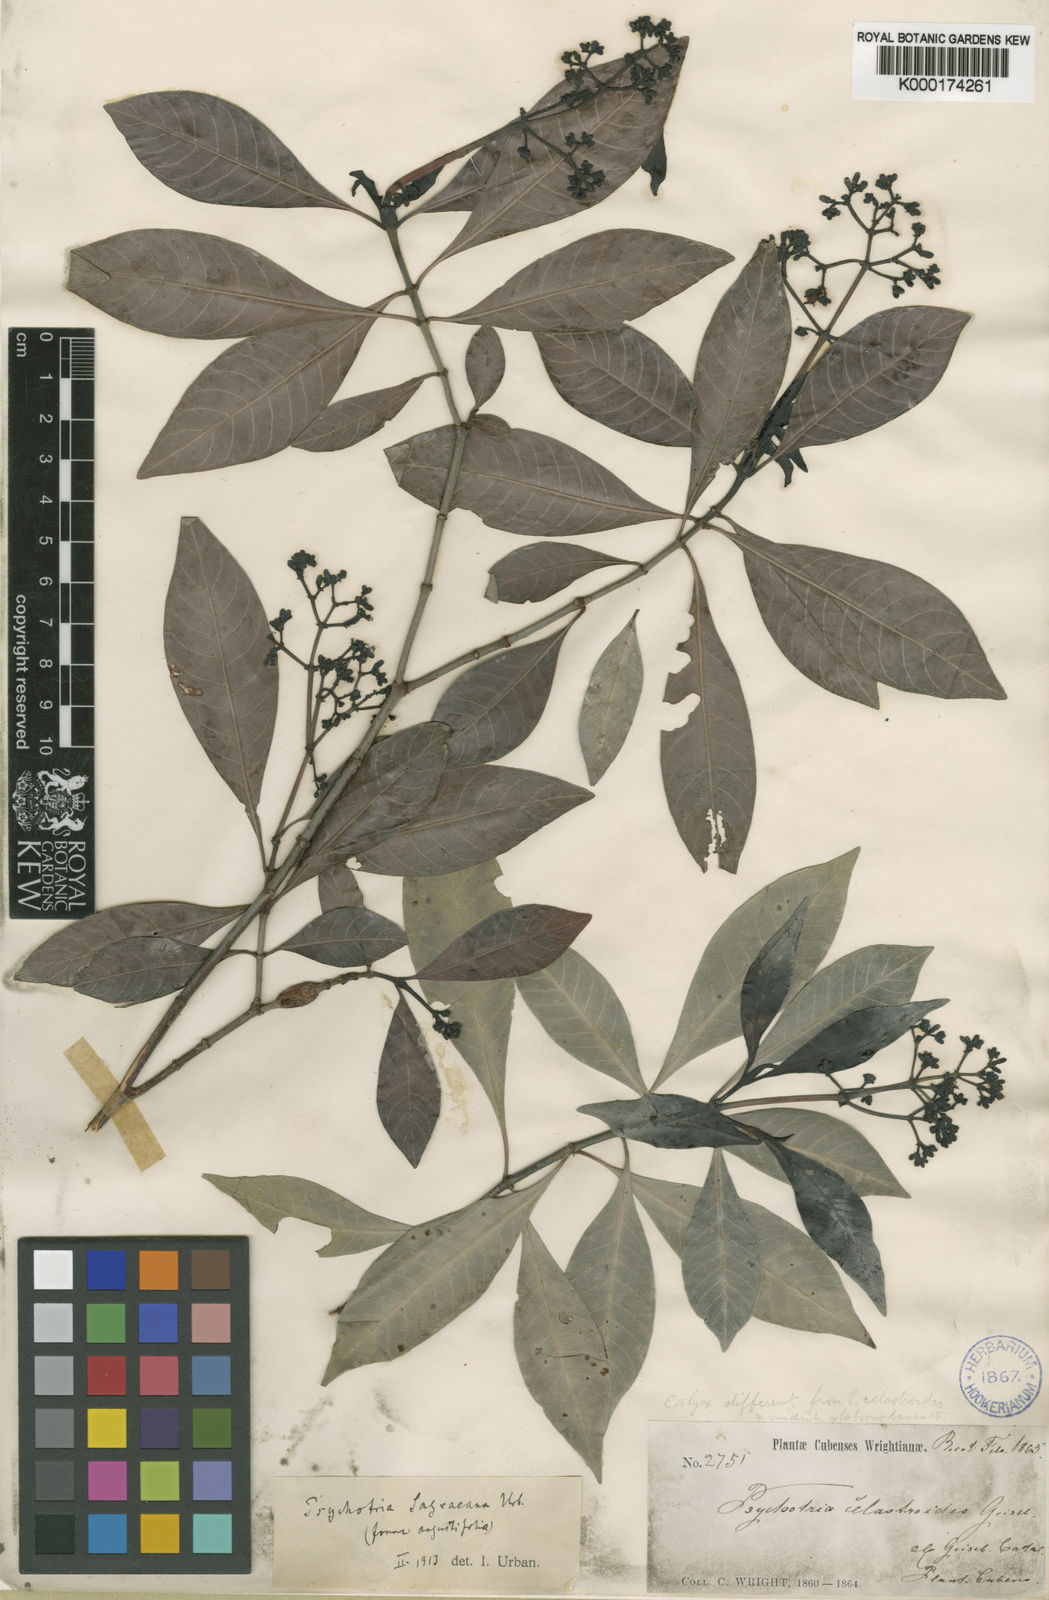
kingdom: Plantae
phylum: Tracheophyta
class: Magnoliopsida
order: Gentianales
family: Rubiaceae
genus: Psychotria
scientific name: Psychotria
